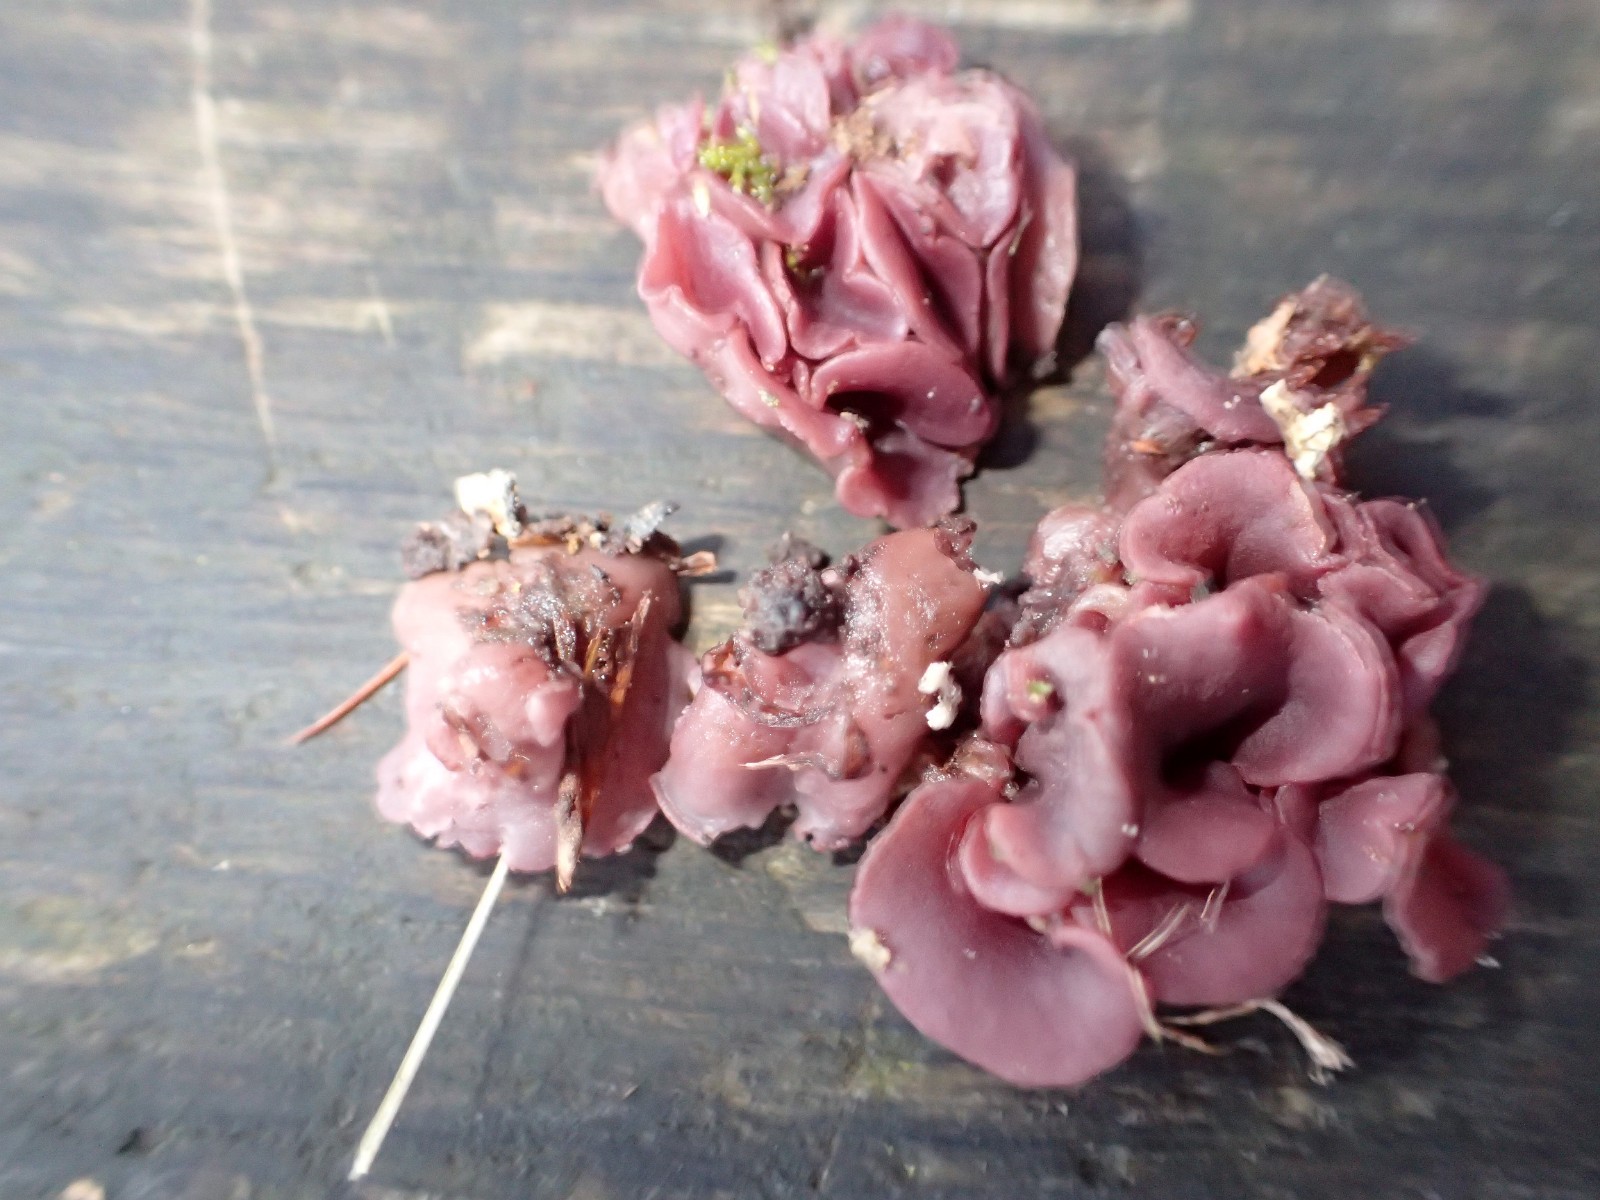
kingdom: Fungi
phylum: Ascomycota
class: Leotiomycetes
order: Helotiales
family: Gelatinodiscaceae
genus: Ascocoryne
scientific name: Ascocoryne cylichnium
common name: stor sejskive
